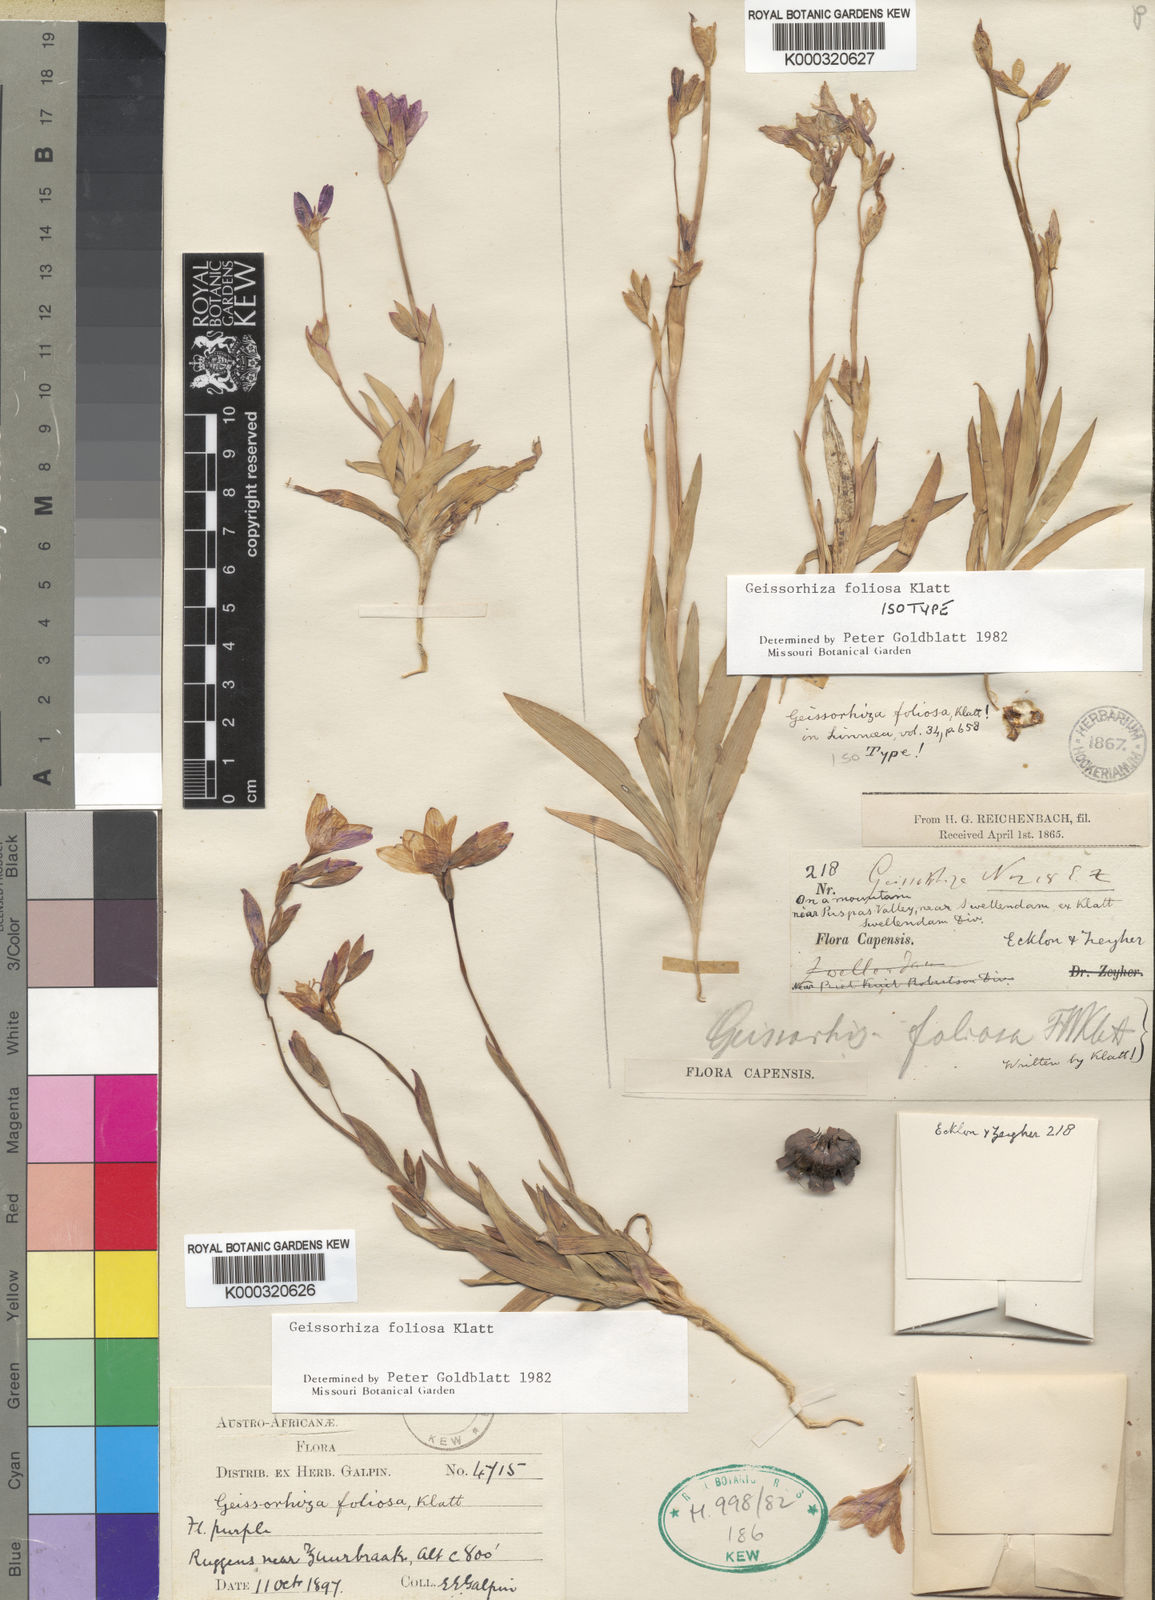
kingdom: Plantae
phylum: Tracheophyta
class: Liliopsida
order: Asparagales
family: Iridaceae
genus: Geissorhiza
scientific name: Geissorhiza foliosa
